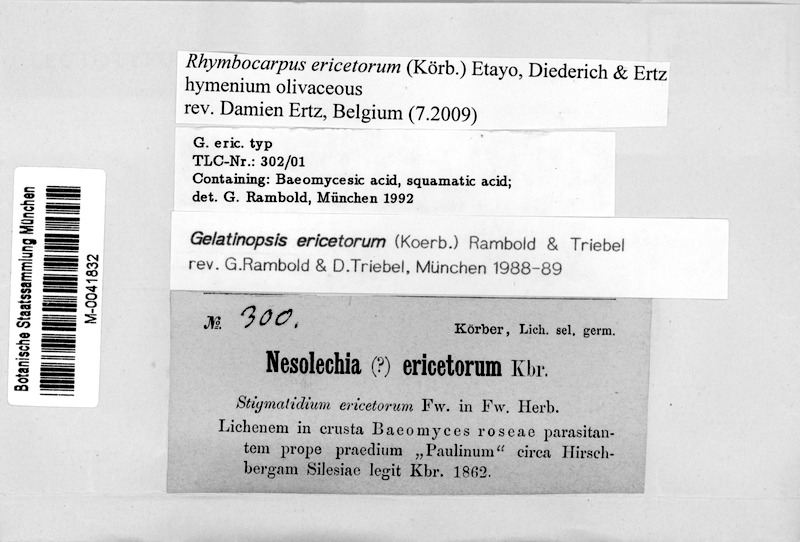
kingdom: Fungi
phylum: Ascomycota
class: Lecanoromycetes
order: Pertusariales
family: Icmadophilaceae
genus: Dibaeis
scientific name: Dibaeis baeomyces
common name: Pink earth lichen
